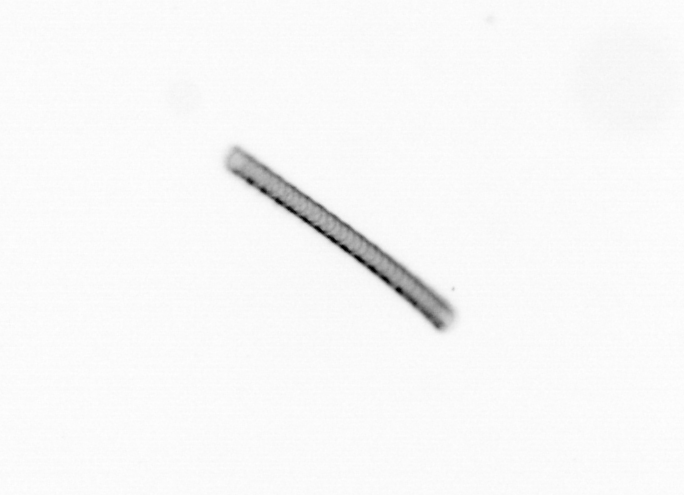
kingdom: Chromista
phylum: Ochrophyta
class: Bacillariophyceae
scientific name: Bacillariophyceae
